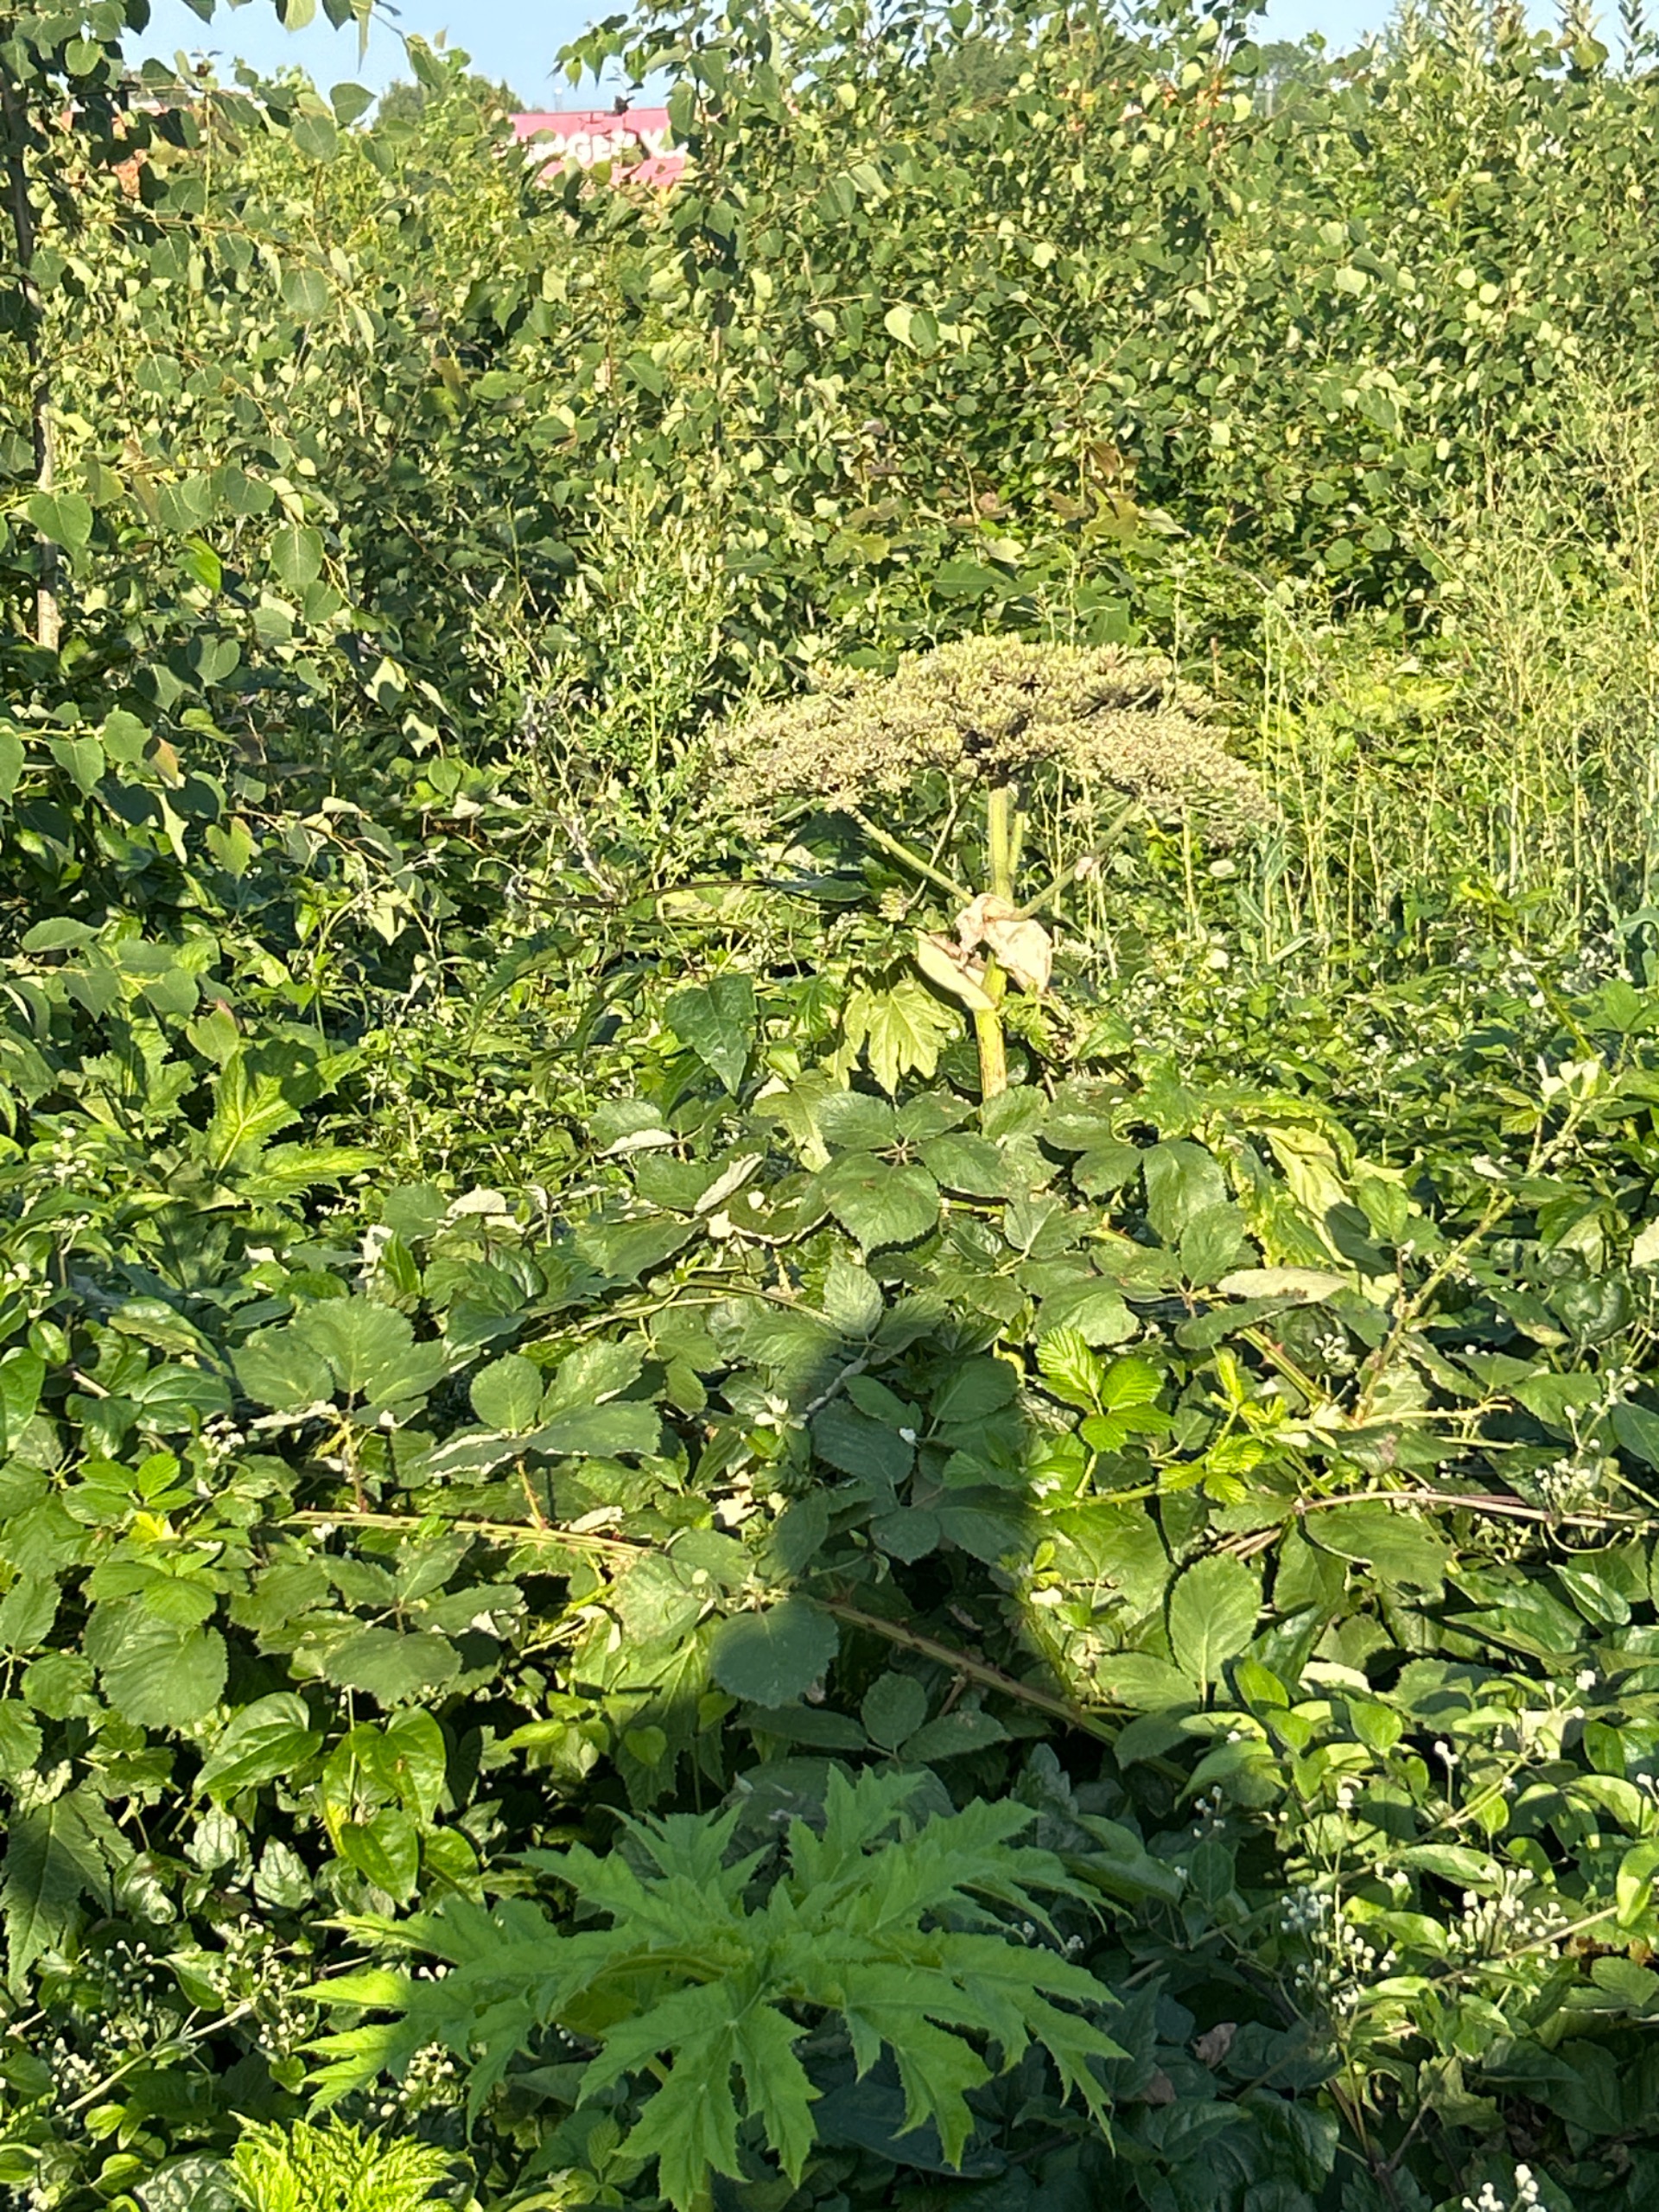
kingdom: Plantae
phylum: Tracheophyta
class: Magnoliopsida
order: Apiales
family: Apiaceae
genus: Heracleum
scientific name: Heracleum mantegazzianum
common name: Kæmpe-bjørneklo
